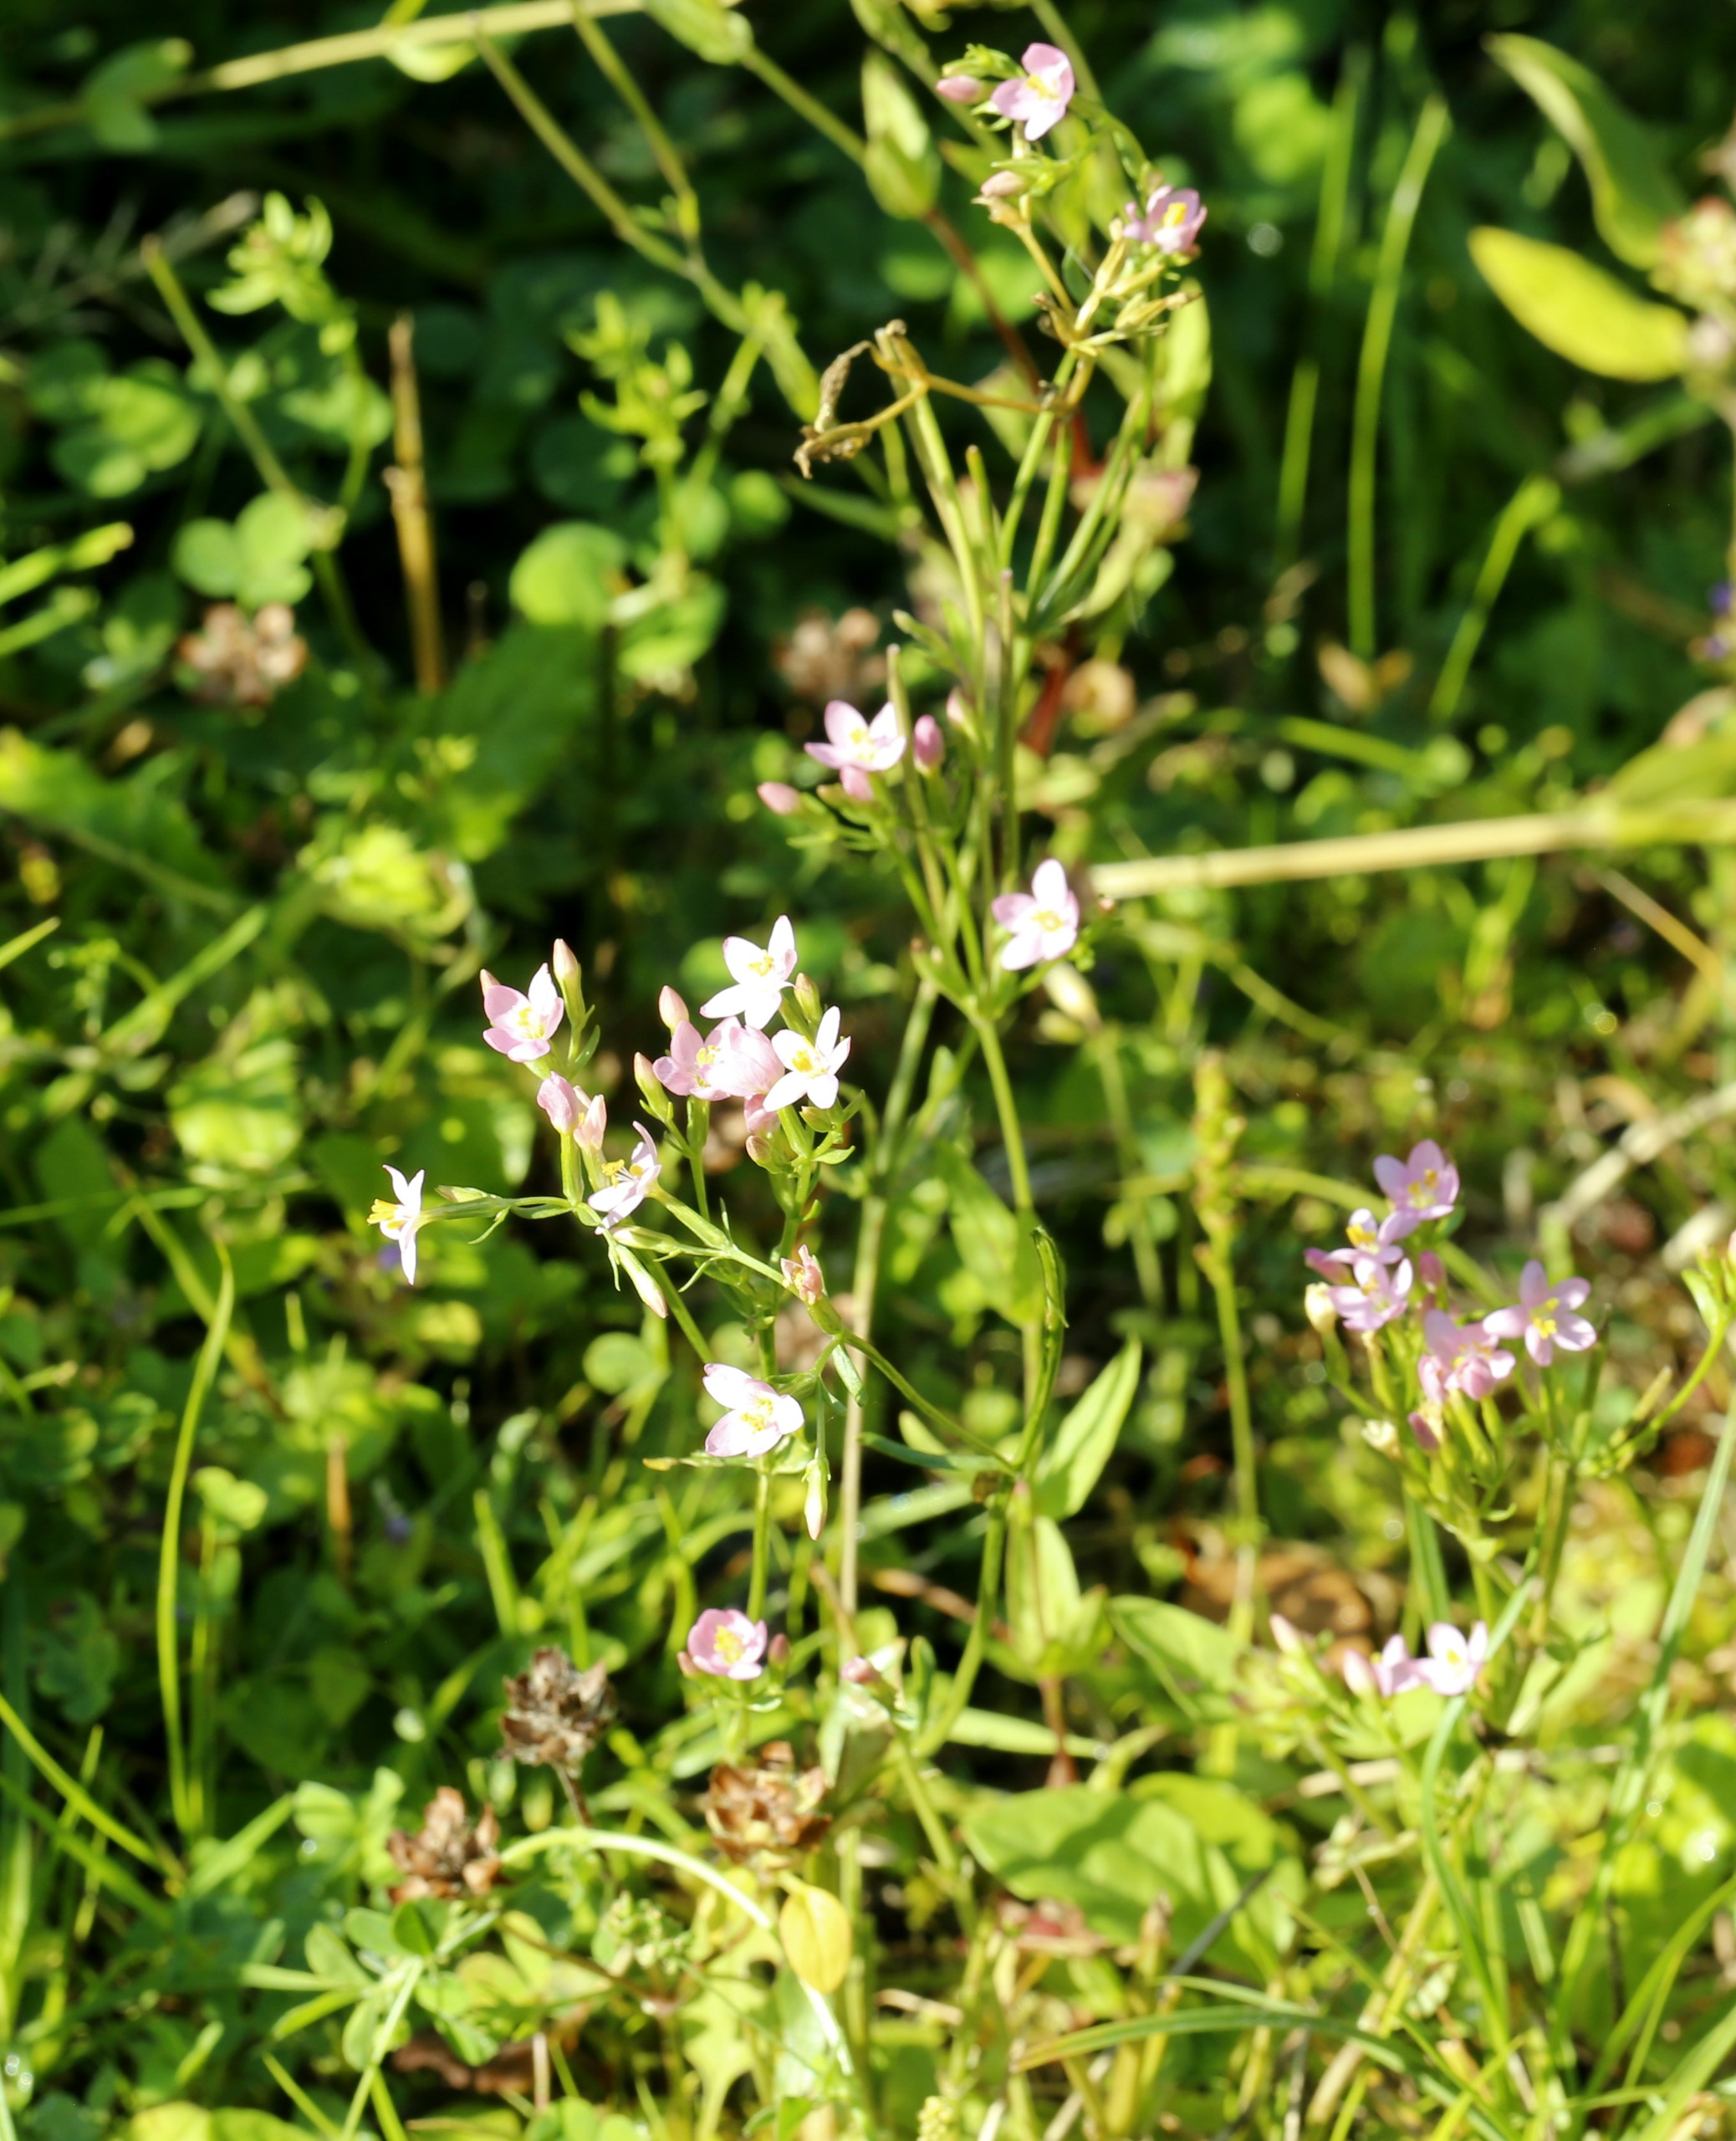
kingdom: Plantae
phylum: Tracheophyta
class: Magnoliopsida
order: Gentianales
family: Gentianaceae
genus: Centaurium
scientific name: Centaurium erythraea
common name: Mark-tusindgylden
